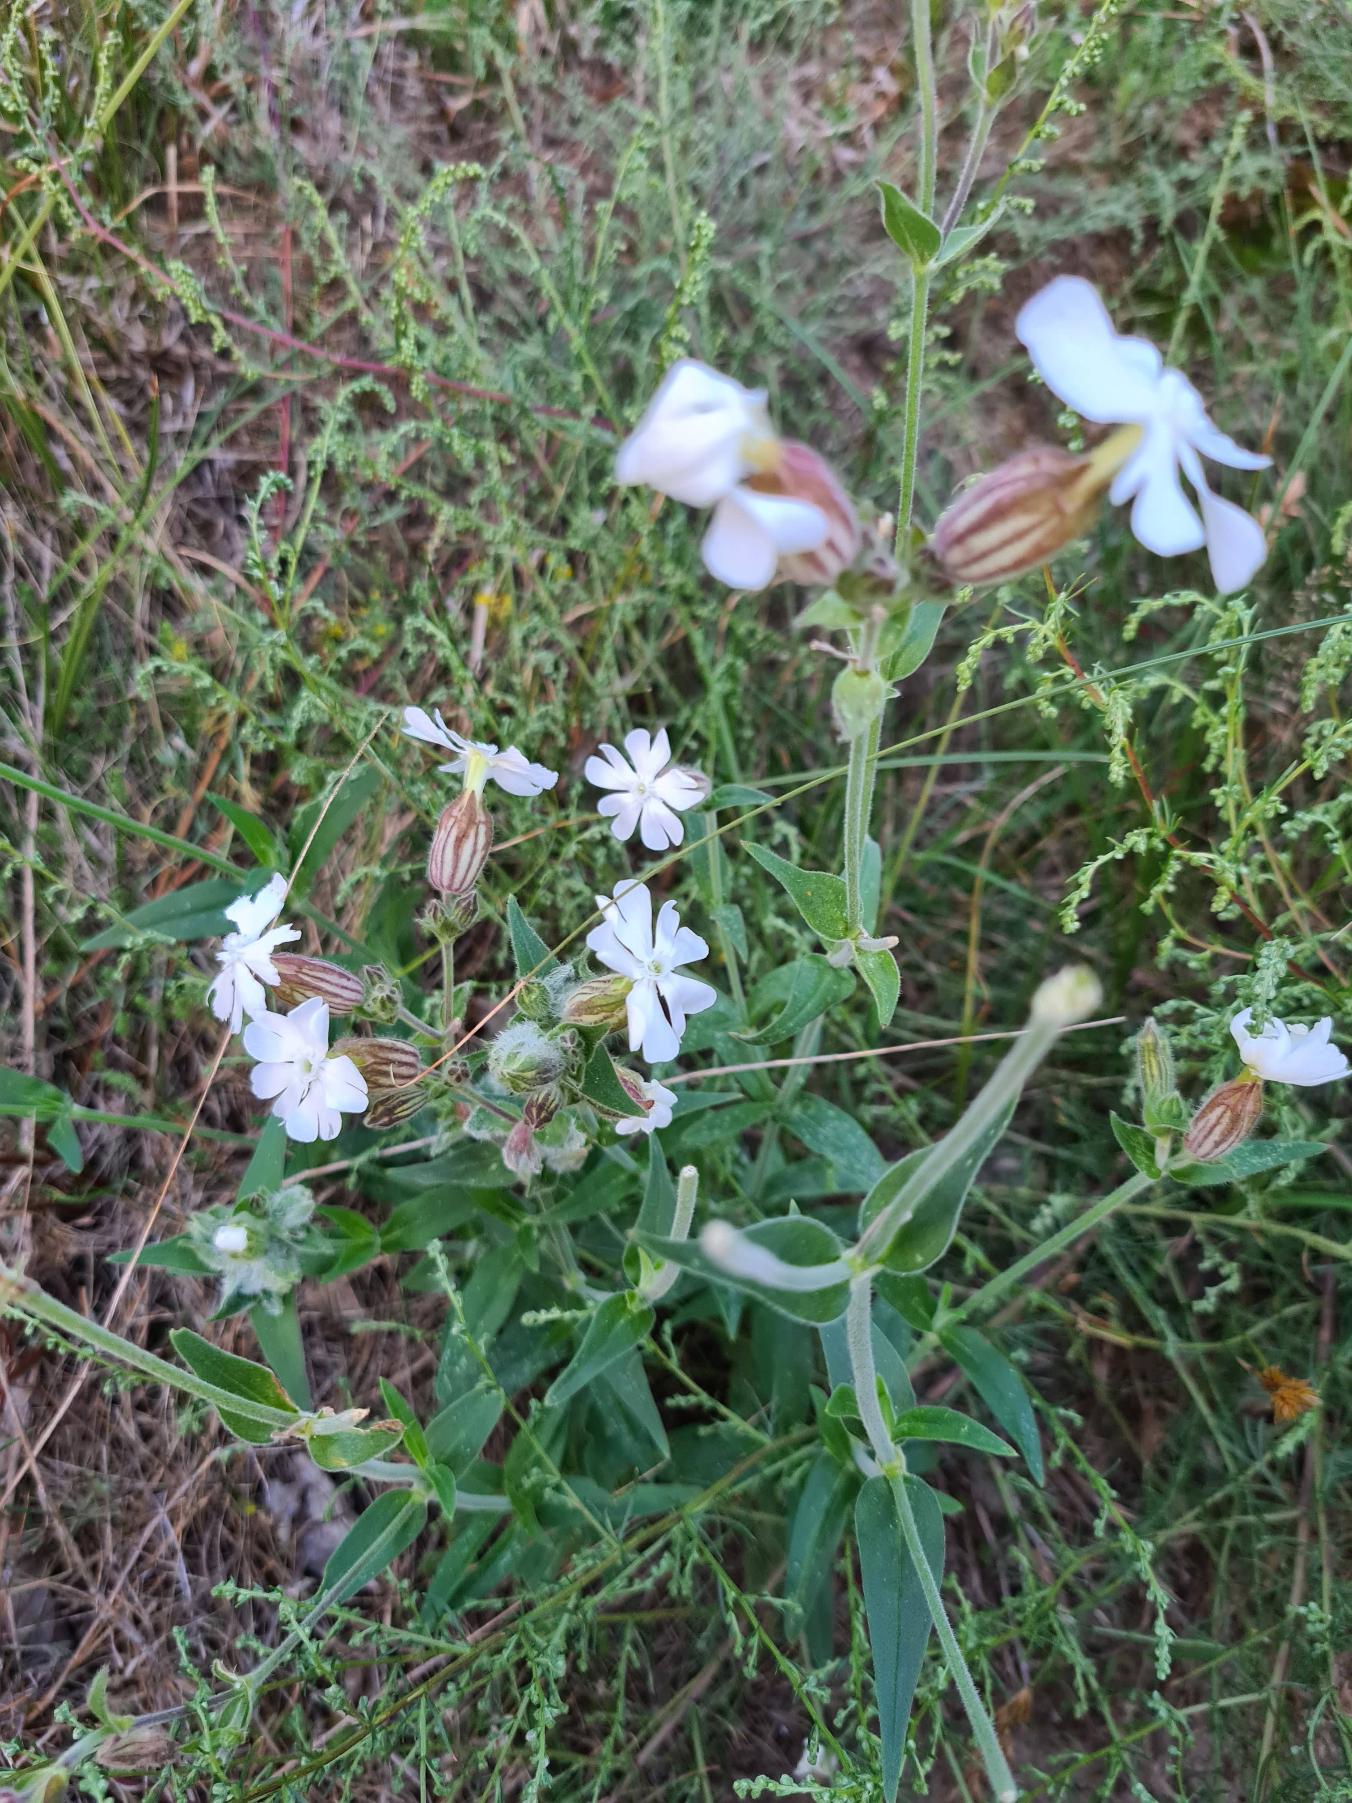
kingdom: Plantae
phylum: Tracheophyta
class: Magnoliopsida
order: Caryophyllales
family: Caryophyllaceae
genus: Silene
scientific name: Silene latifolia
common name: Aftenpragtstjerne
